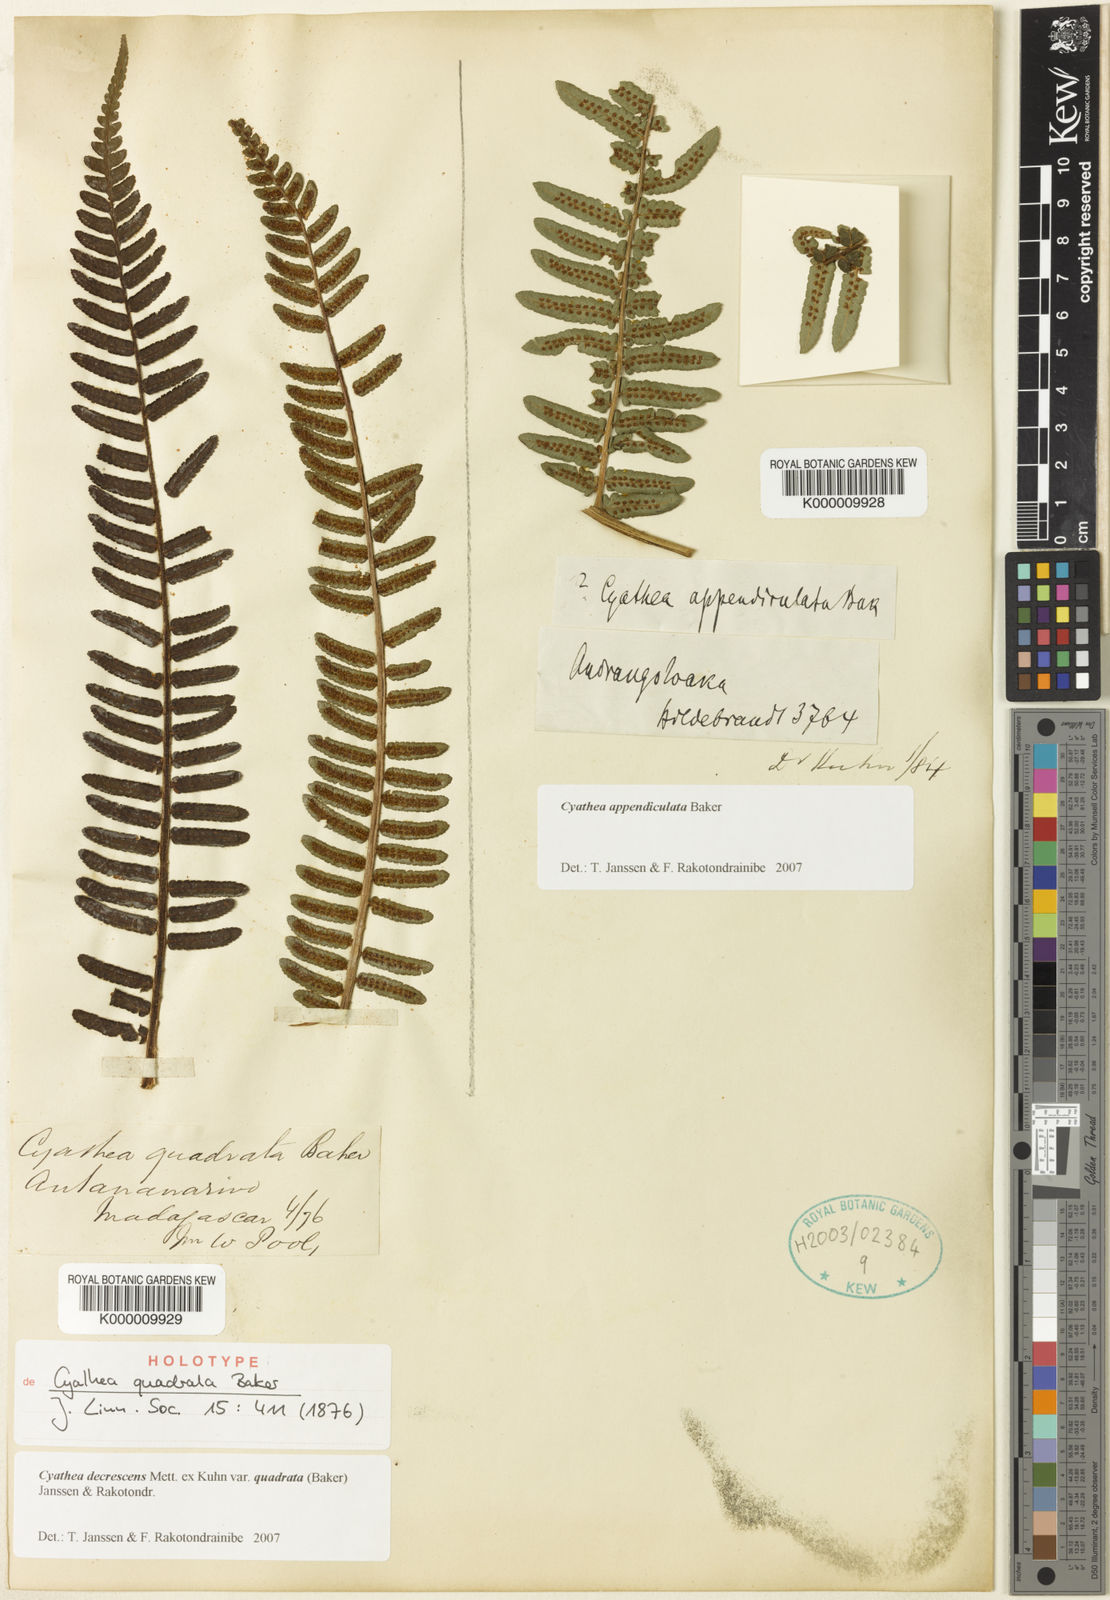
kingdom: Plantae
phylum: Tracheophyta
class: Polypodiopsida
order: Cyatheales
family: Cyatheaceae
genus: Alsophila
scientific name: Alsophila quadrata
